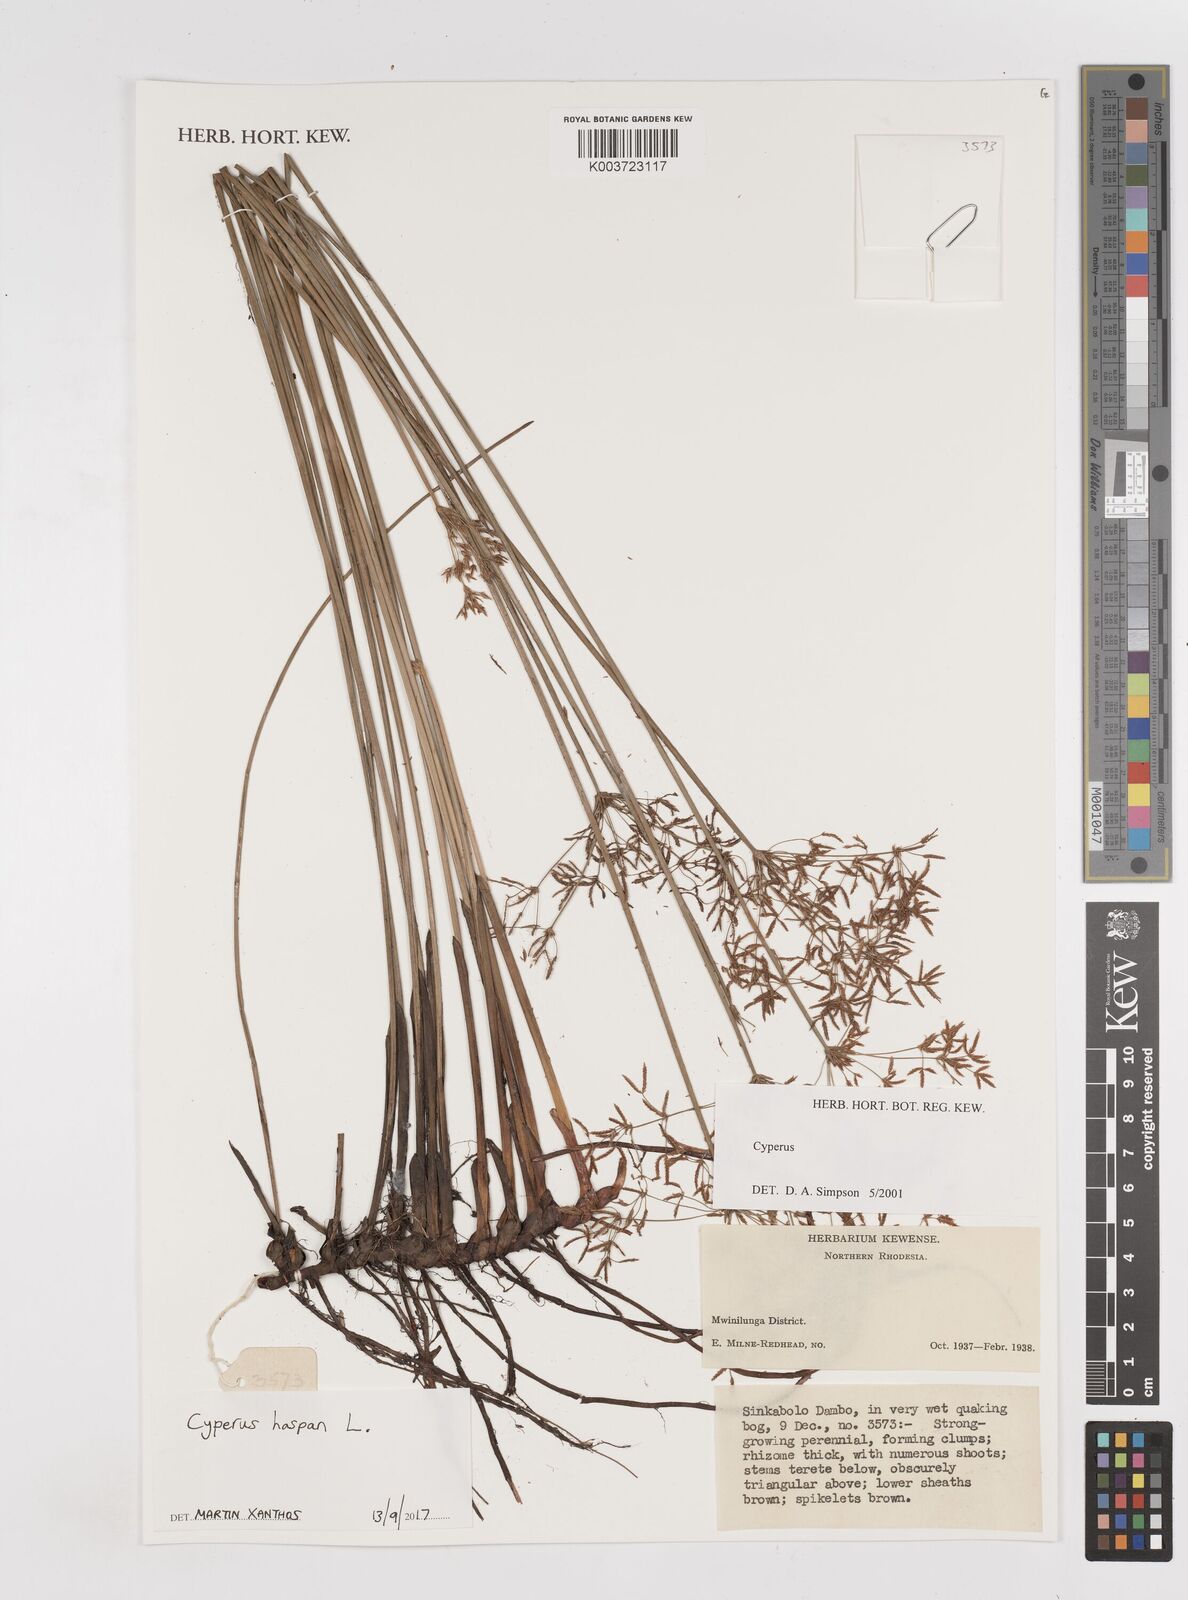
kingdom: Plantae
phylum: Tracheophyta
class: Liliopsida
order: Poales
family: Cyperaceae
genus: Cyperus
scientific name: Cyperus haspan
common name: Haspan flatsedge
